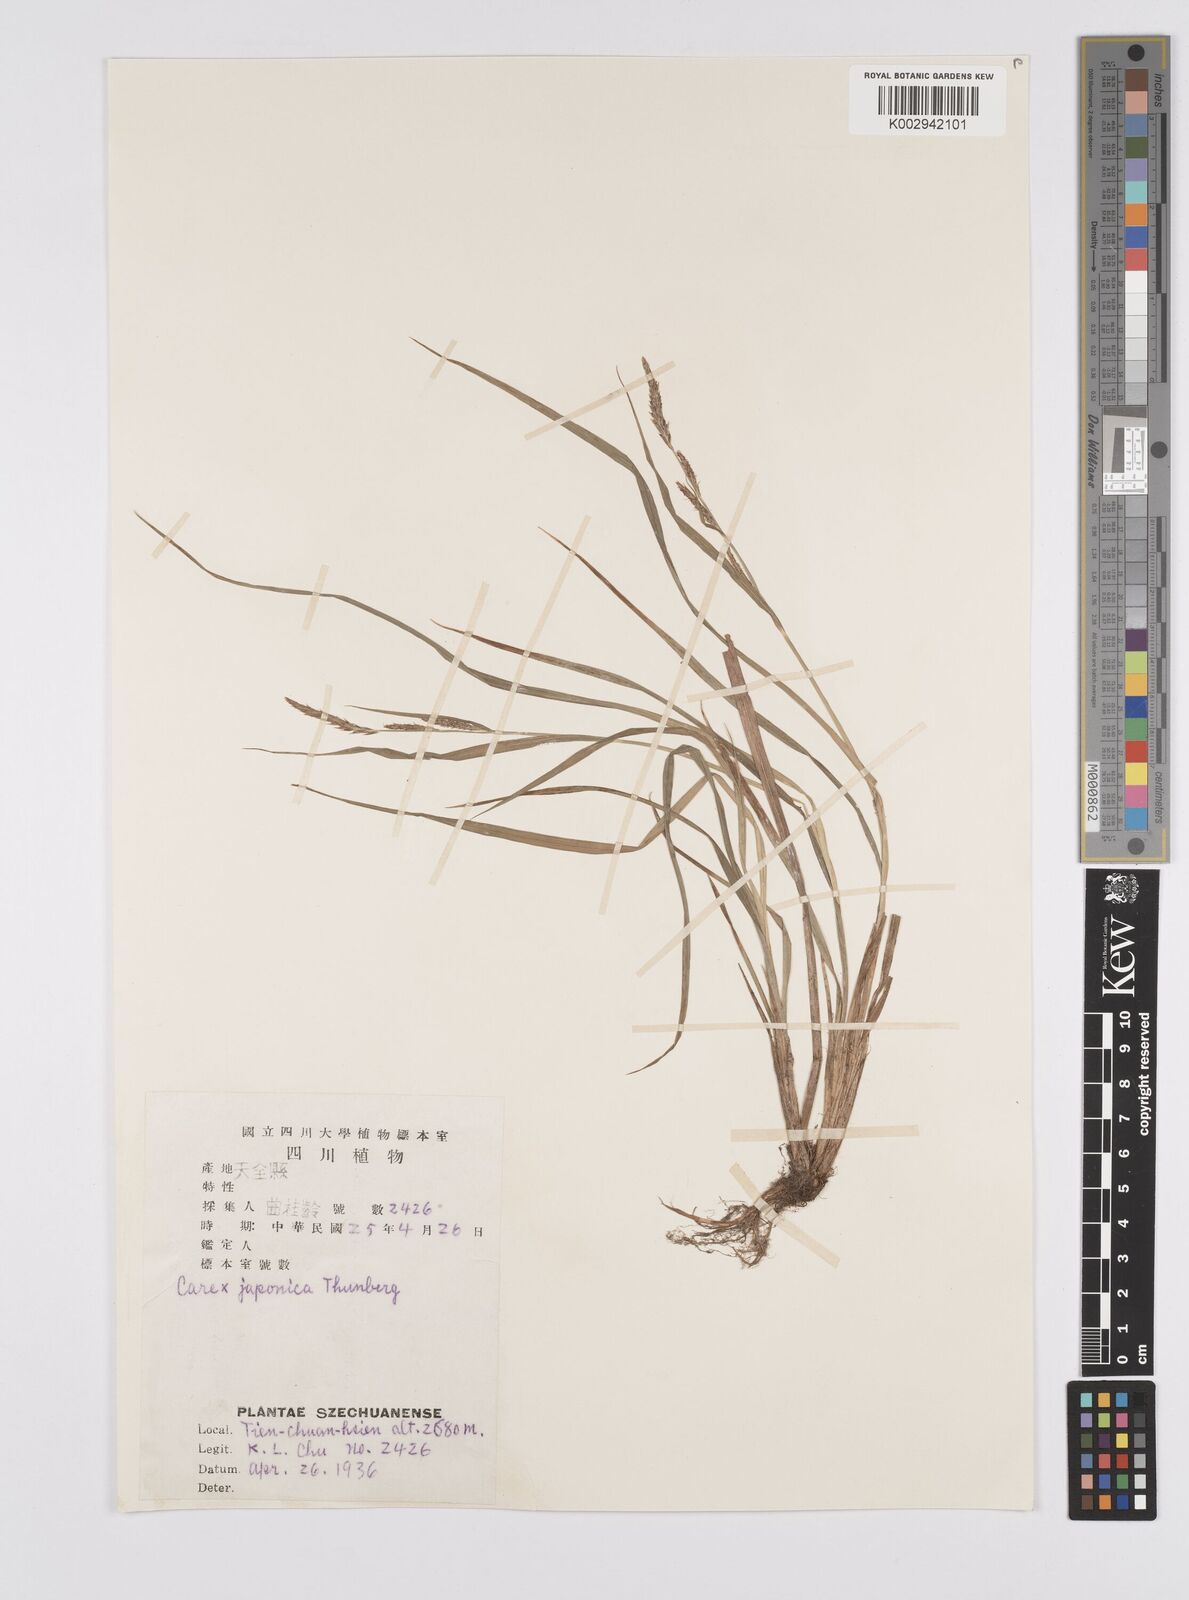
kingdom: Plantae
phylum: Tracheophyta
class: Liliopsida
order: Poales
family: Cyperaceae
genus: Carex
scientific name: Carex japonica
